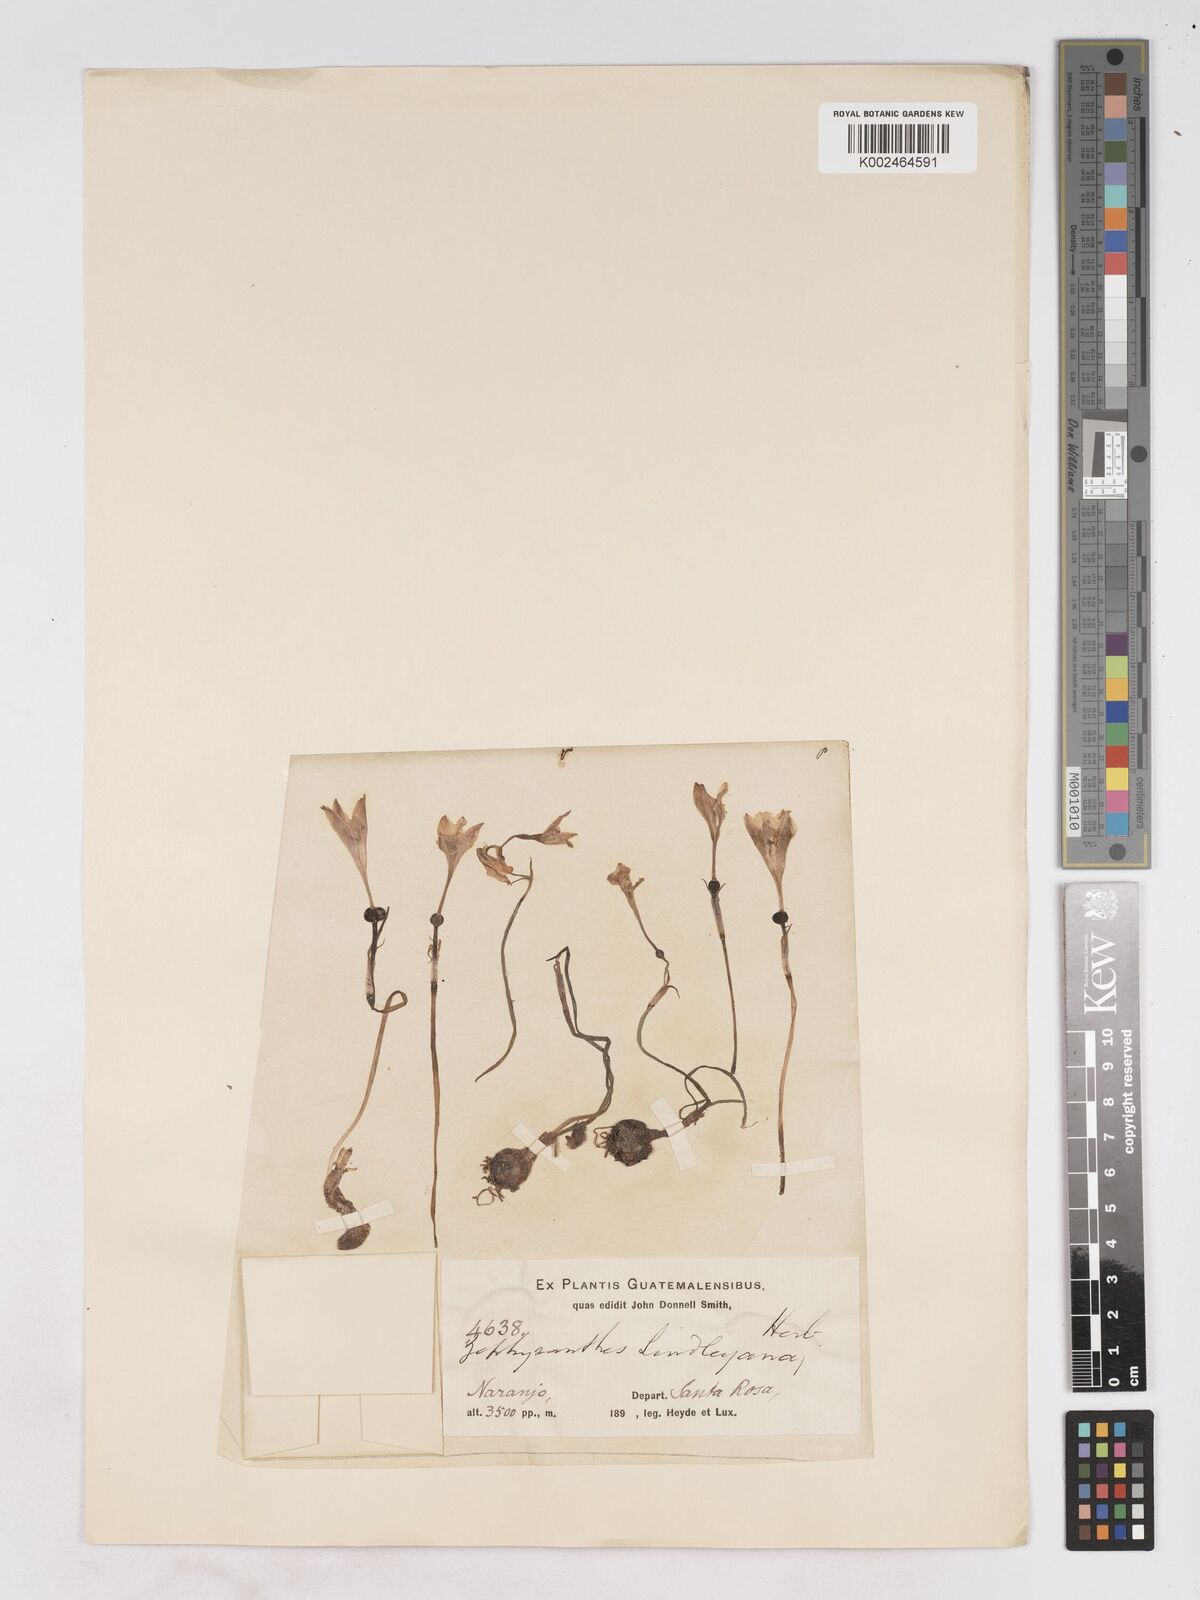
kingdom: Plantae
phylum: Tracheophyta
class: Liliopsida
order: Asparagales
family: Amaryllidaceae
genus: Zephyranthes
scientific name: Zephyranthes lindleyana
